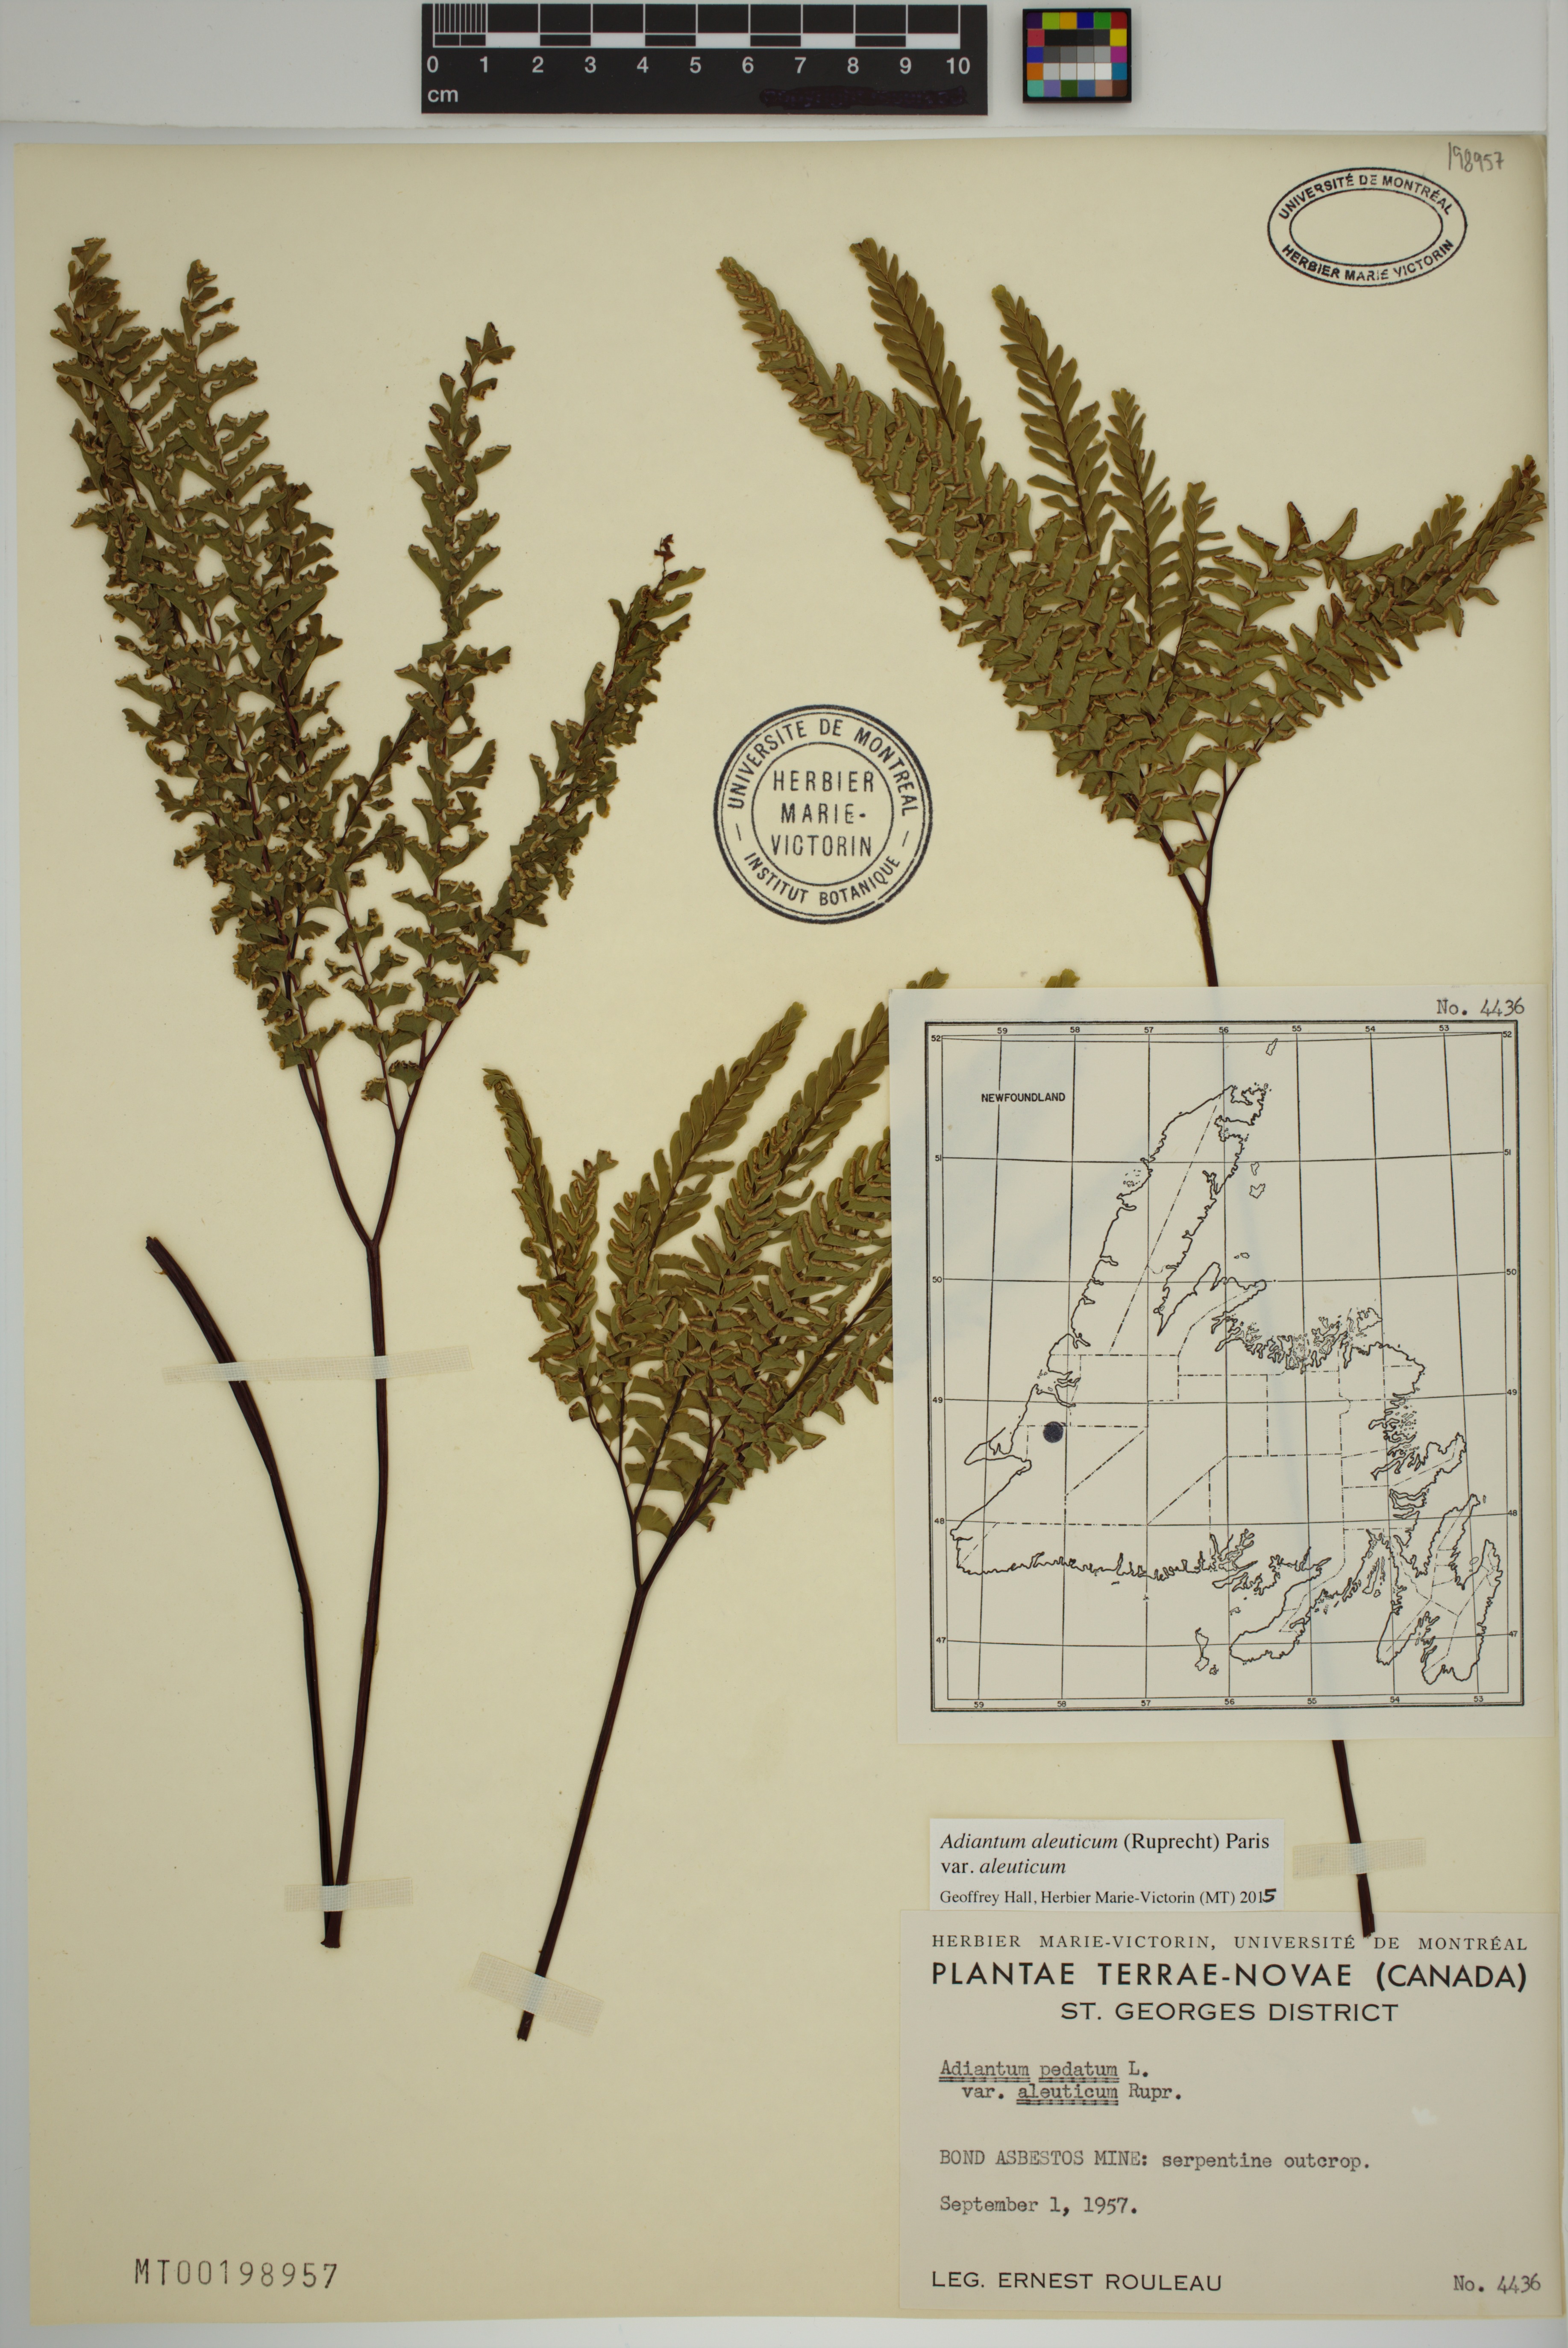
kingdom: Plantae
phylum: Tracheophyta
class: Polypodiopsida
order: Polypodiales
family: Pteridaceae
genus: Adiantum
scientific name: Adiantum aleuticum
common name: Aleutian maidenhair fern
